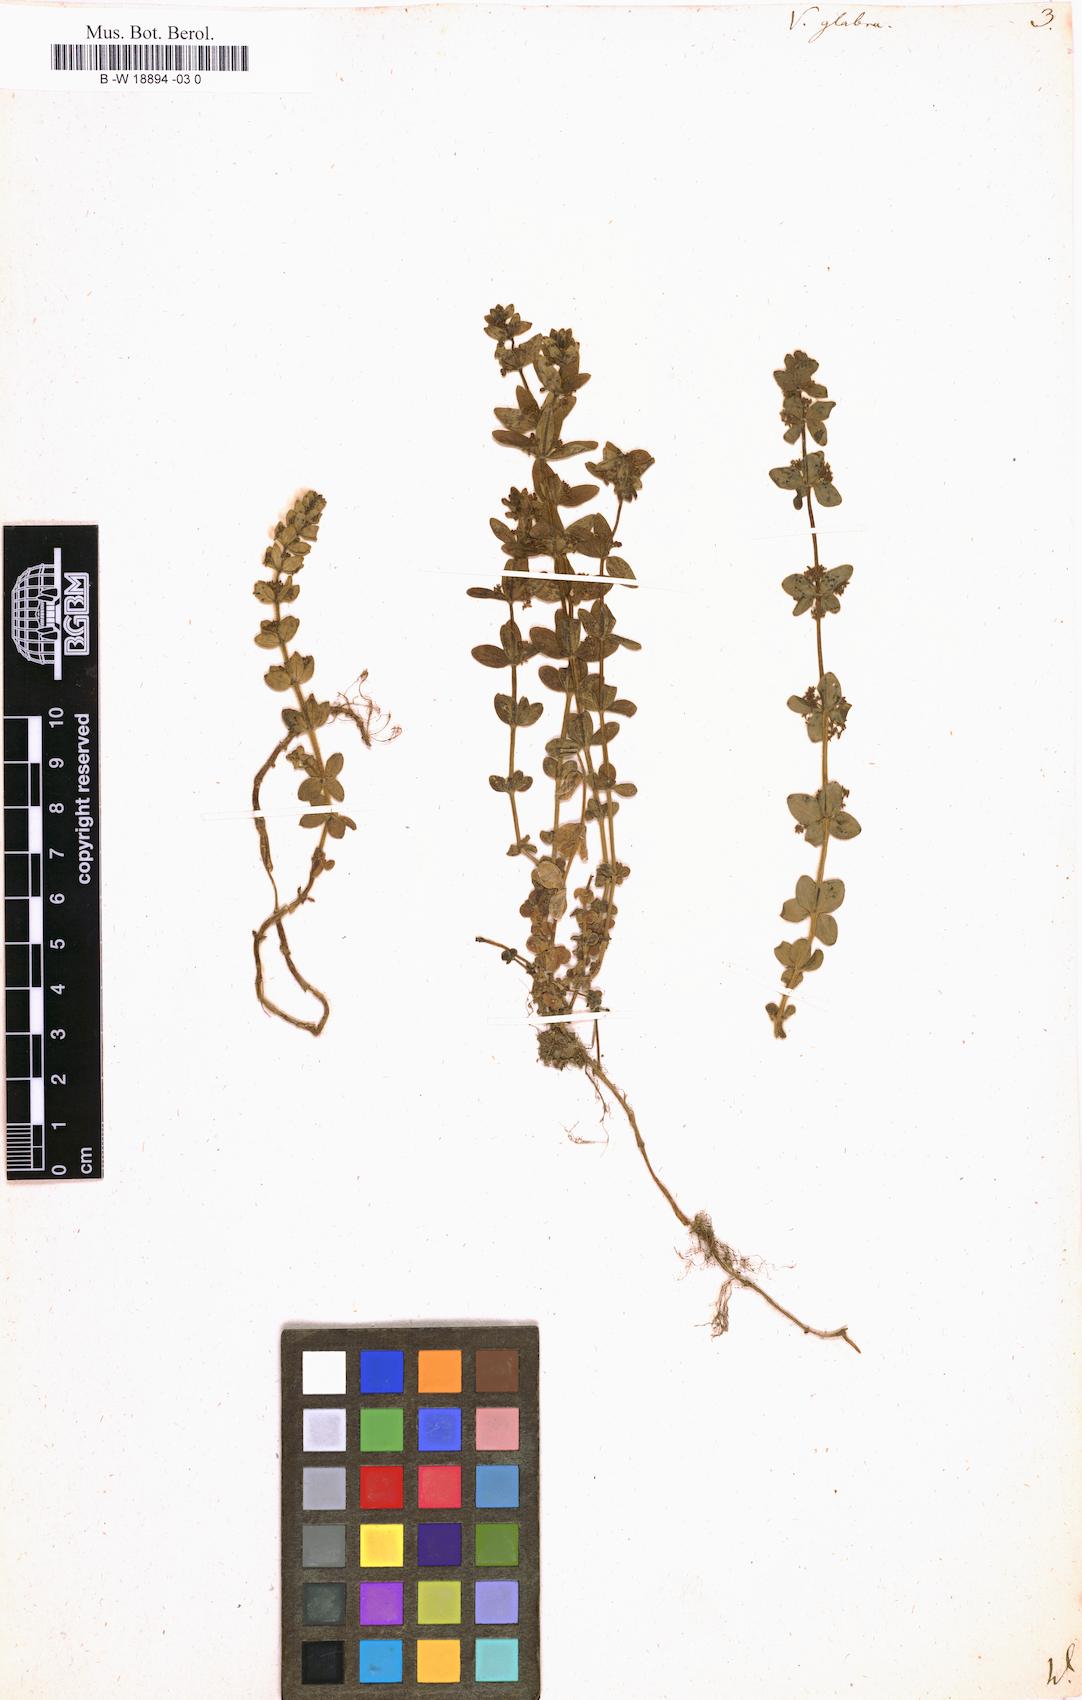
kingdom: Plantae
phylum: Tracheophyta
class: Magnoliopsida
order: Gentianales
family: Rubiaceae
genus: Cruciata
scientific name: Cruciata glabra
